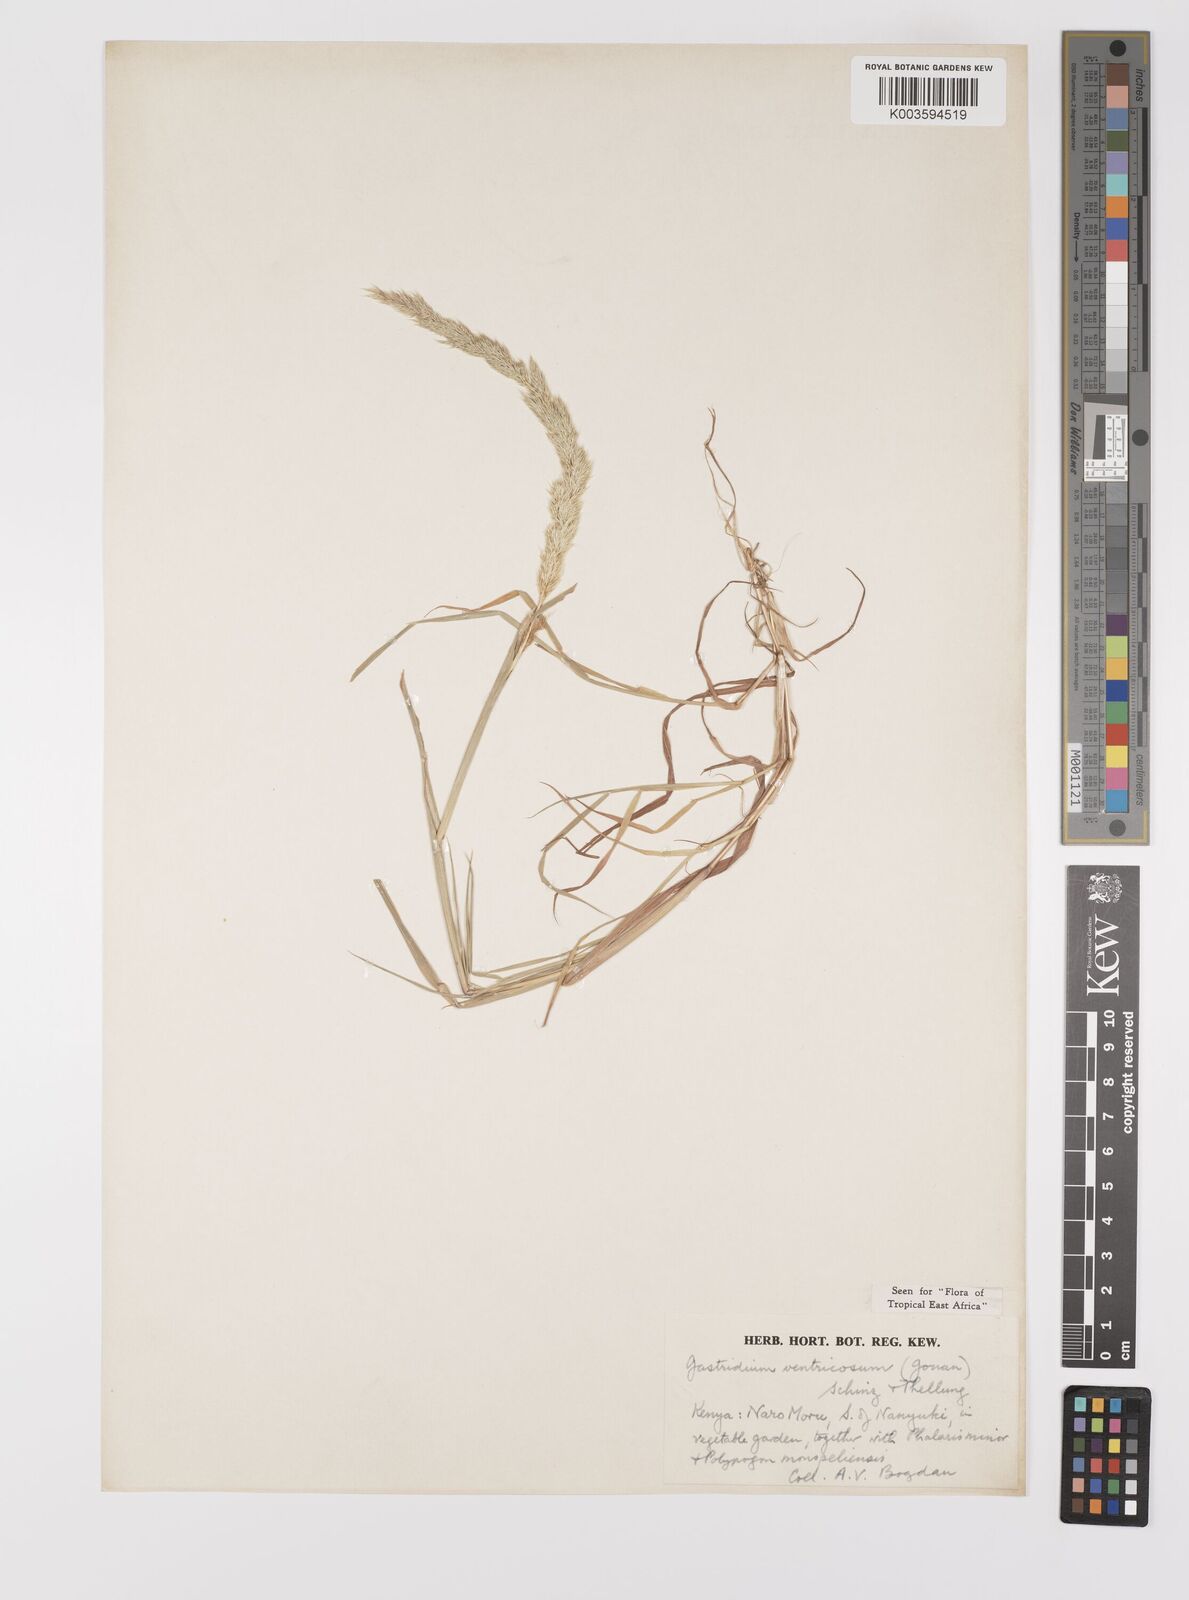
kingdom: Plantae
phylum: Tracheophyta
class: Liliopsida
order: Poales
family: Poaceae
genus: Gastridium
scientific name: Gastridium ventricosum
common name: Nit-grass
